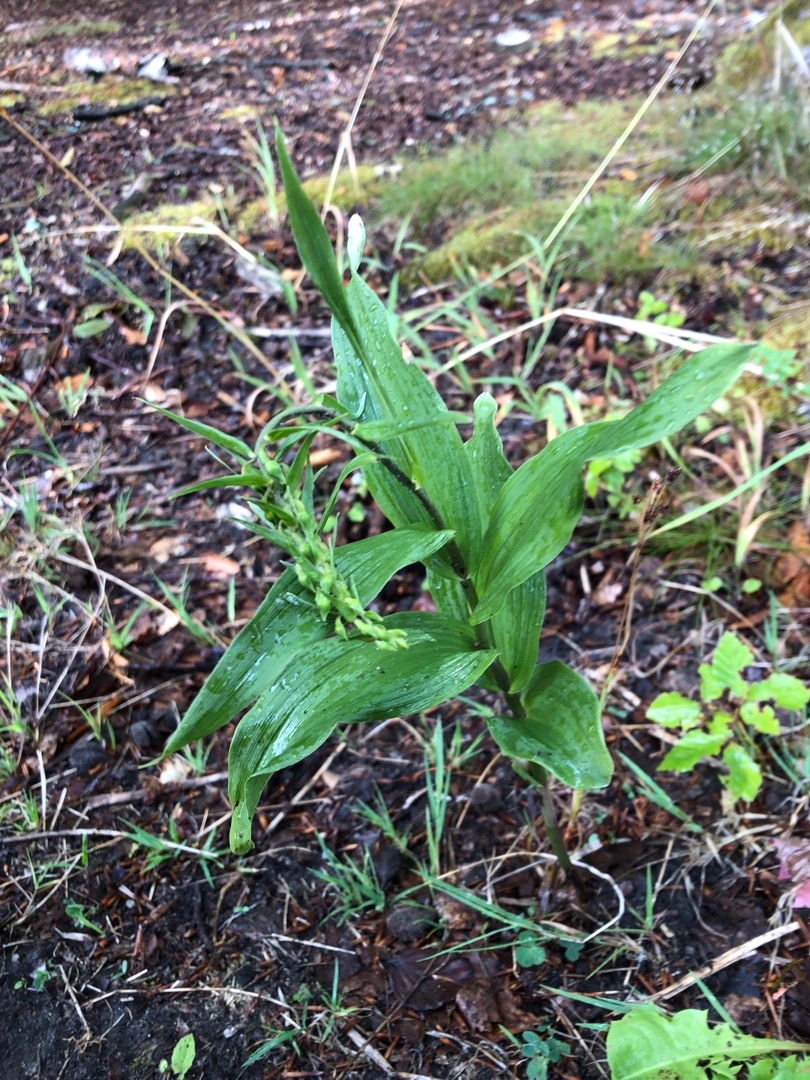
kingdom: Plantae
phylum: Tracheophyta
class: Liliopsida
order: Asparagales
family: Orchidaceae
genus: Epipactis
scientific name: Epipactis helleborine
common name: Skov-hullæbe
